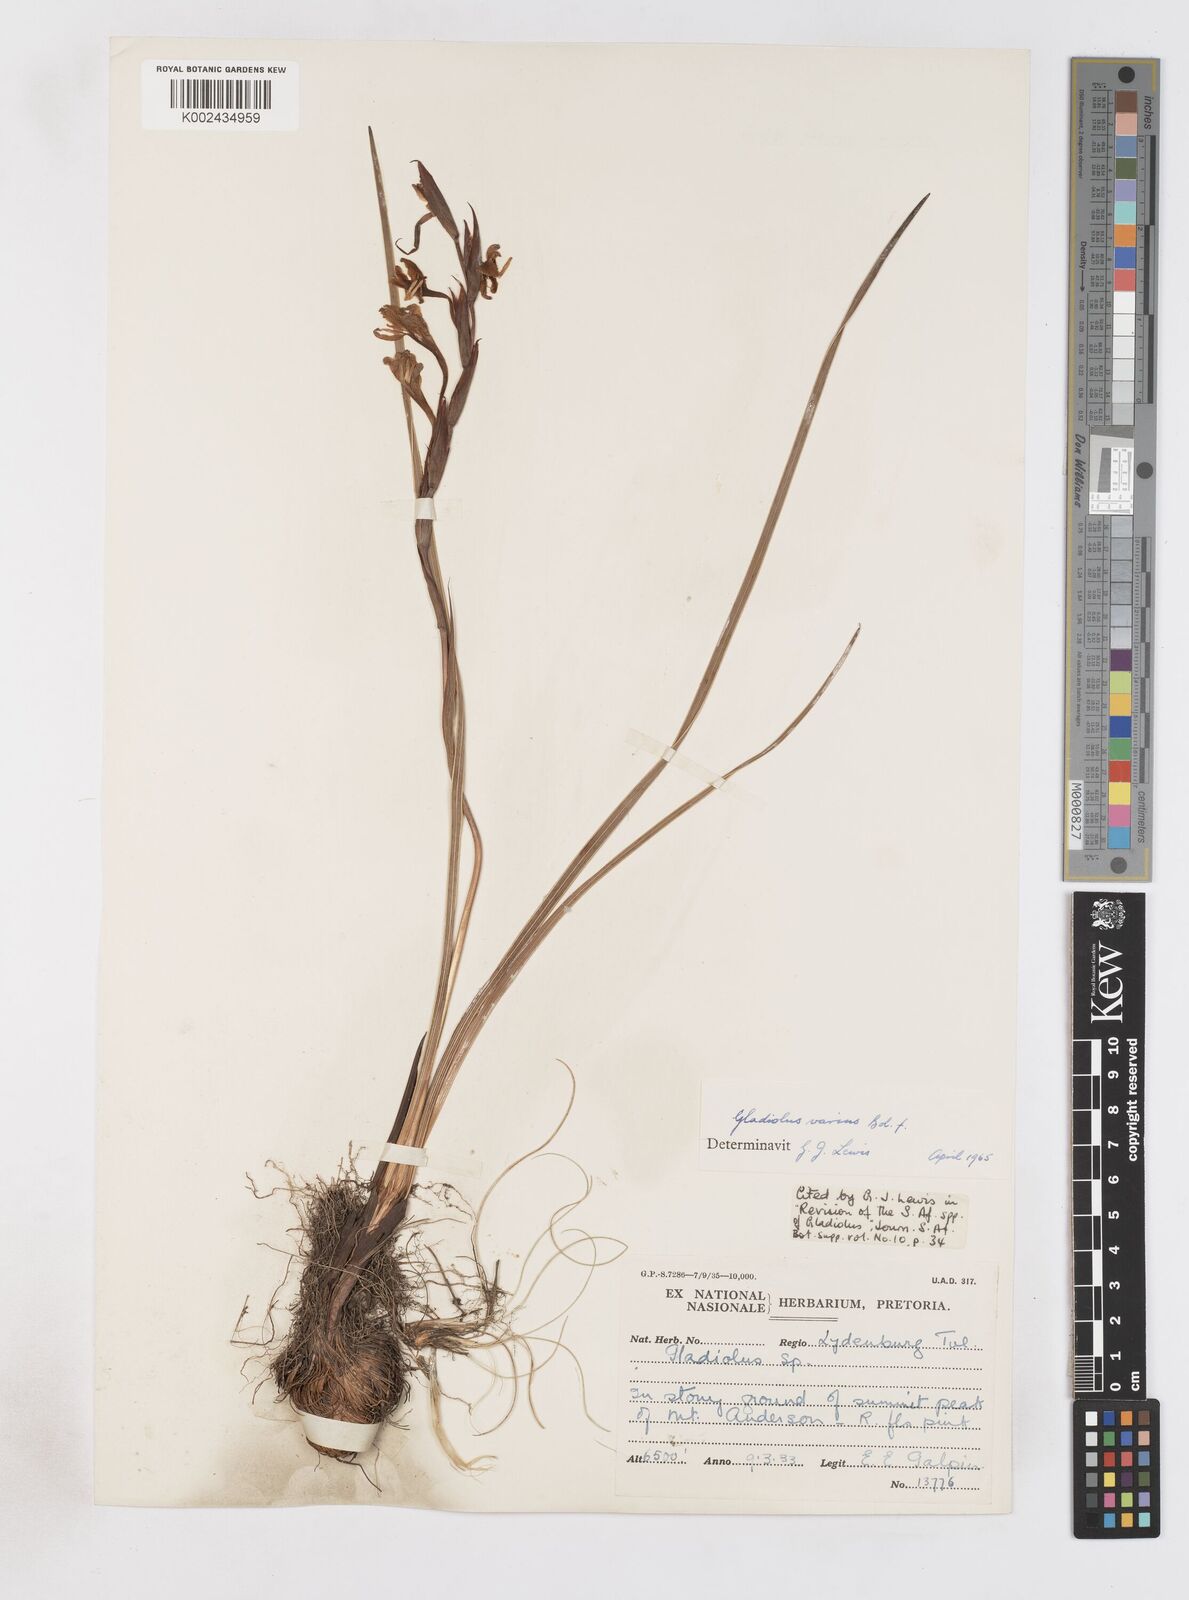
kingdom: Plantae
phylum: Tracheophyta
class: Liliopsida
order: Asparagales
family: Iridaceae
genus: Gladiolus
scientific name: Gladiolus varius
